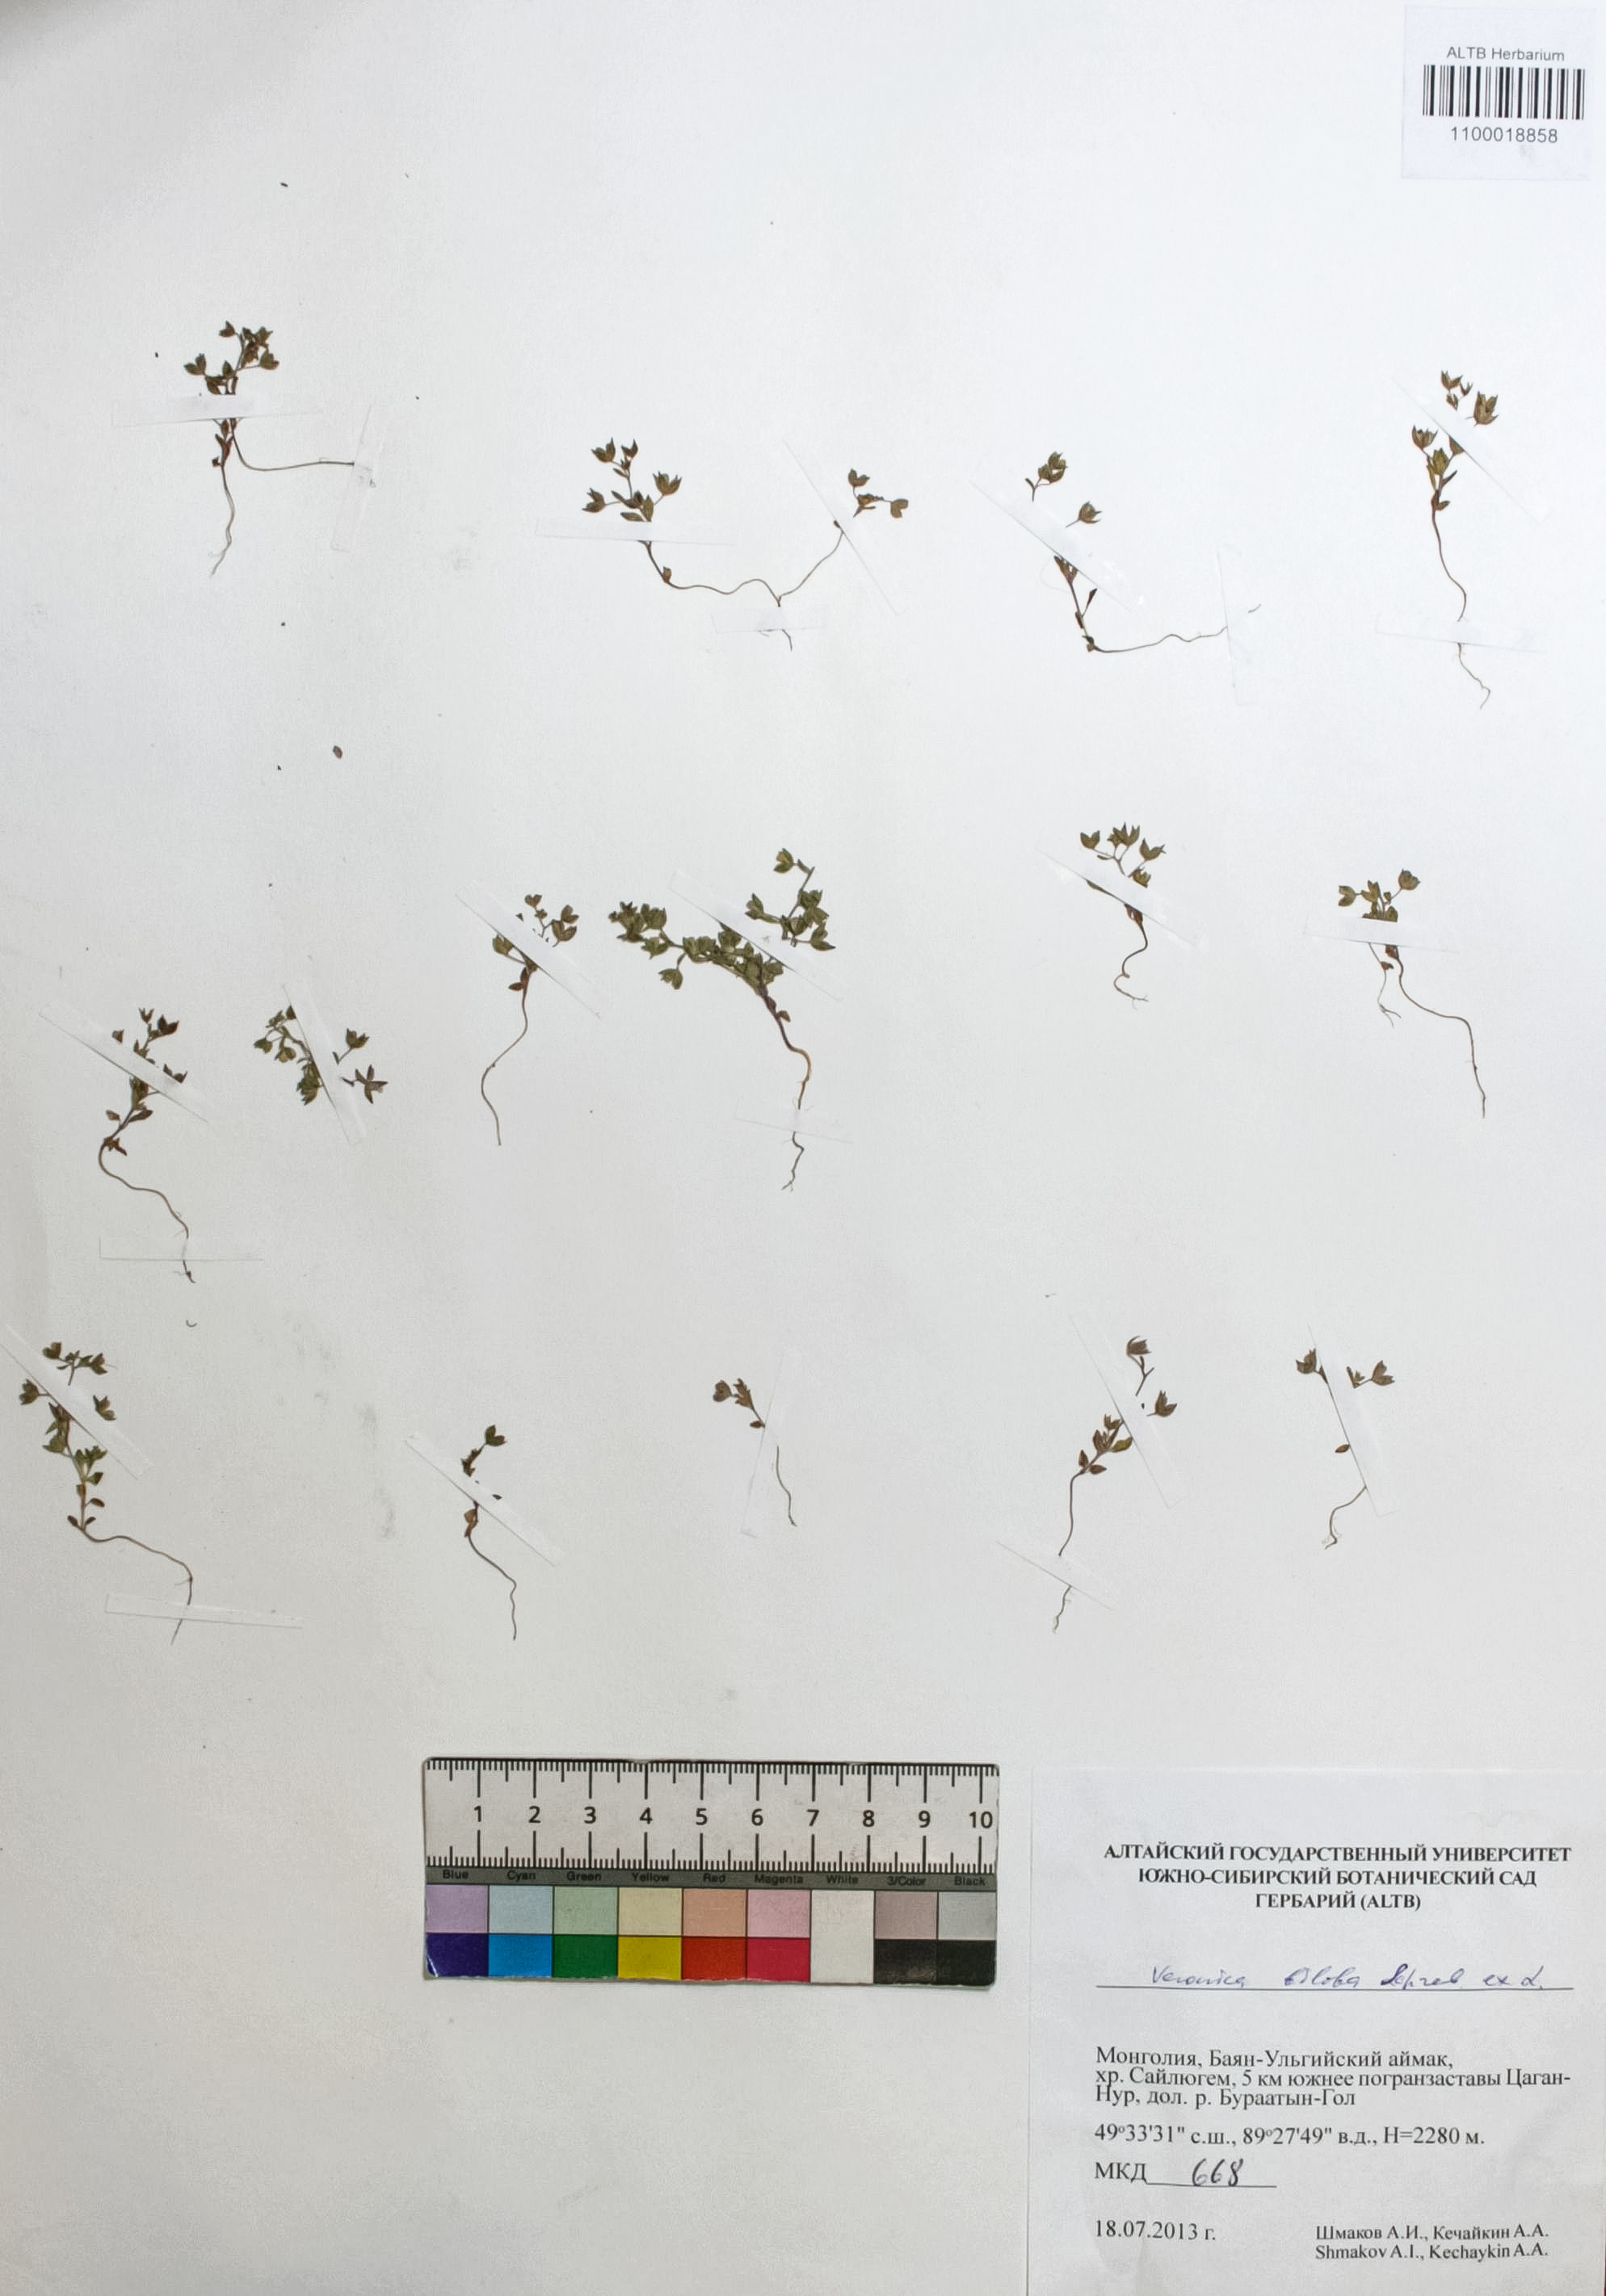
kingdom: Plantae
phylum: Tracheophyta
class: Magnoliopsida
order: Lamiales
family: Plantaginaceae
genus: Veronica
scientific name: Veronica biloba
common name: Twolobe speedwell
